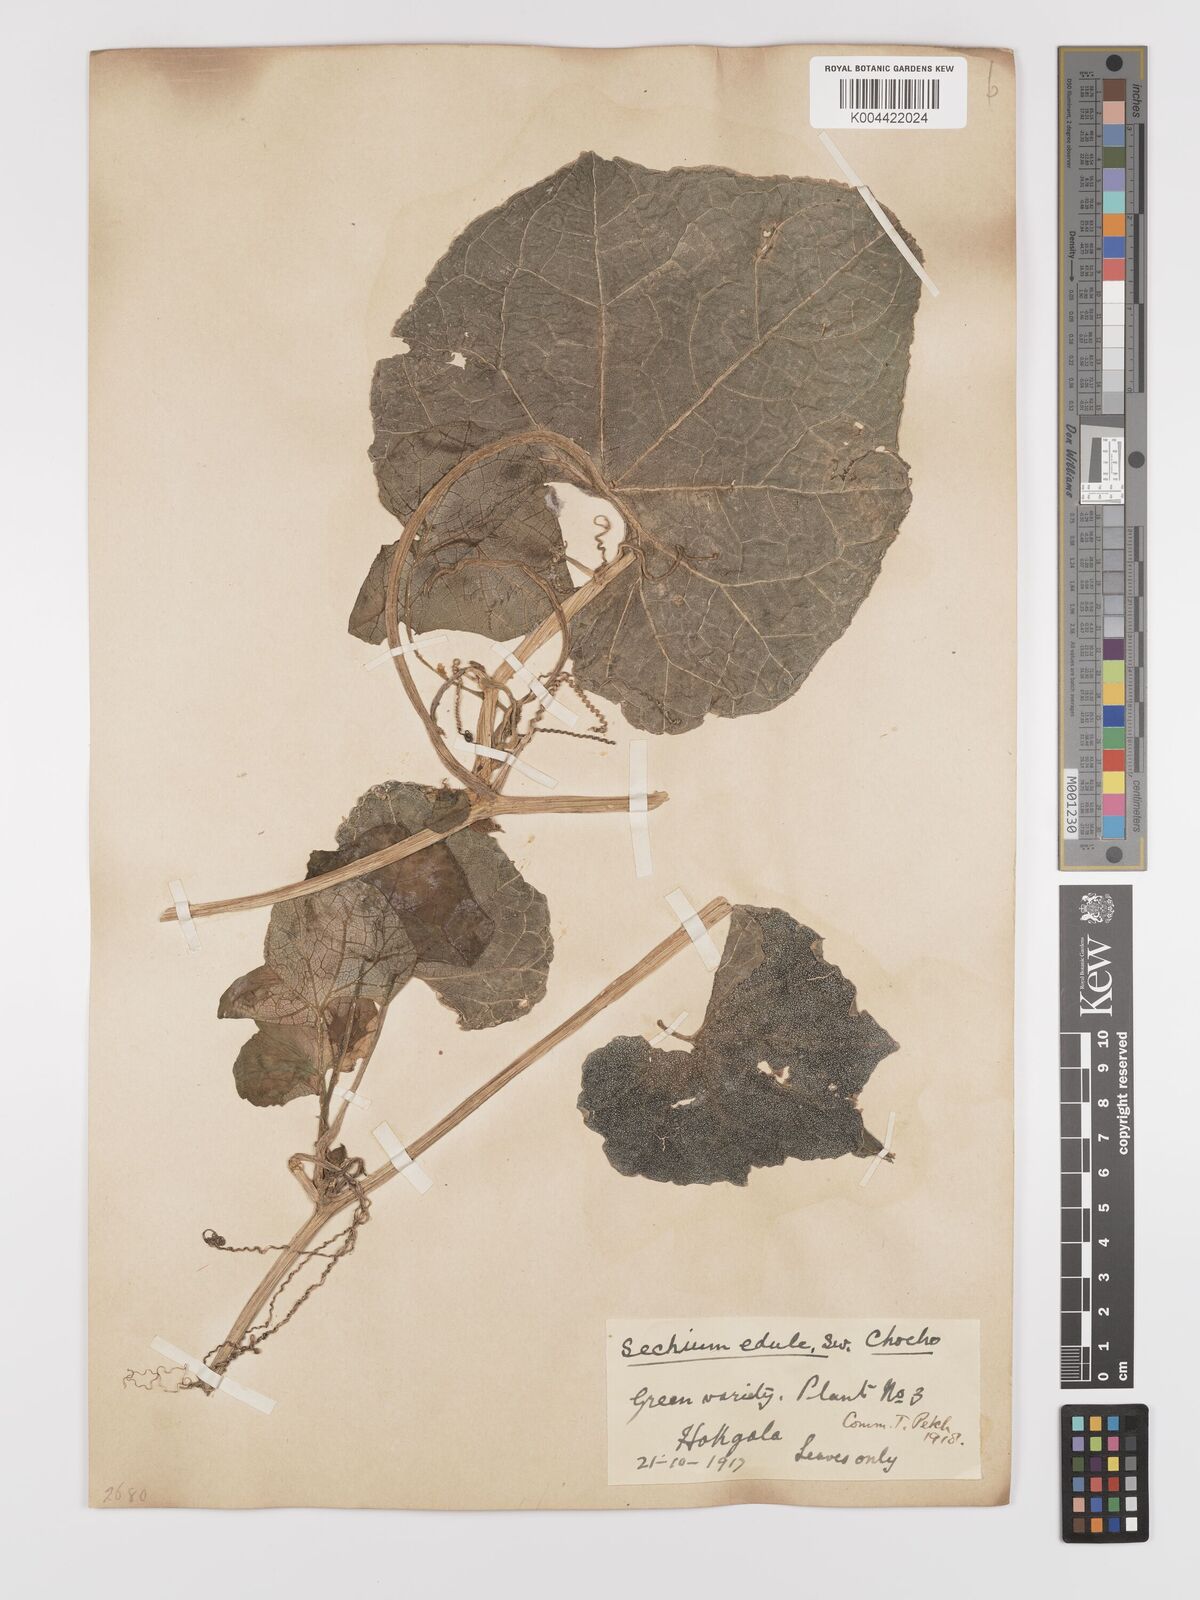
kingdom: Plantae
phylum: Tracheophyta
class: Magnoliopsida
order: Cucurbitales
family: Cucurbitaceae
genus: Sechium
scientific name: Sechium edule
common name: Chayote
